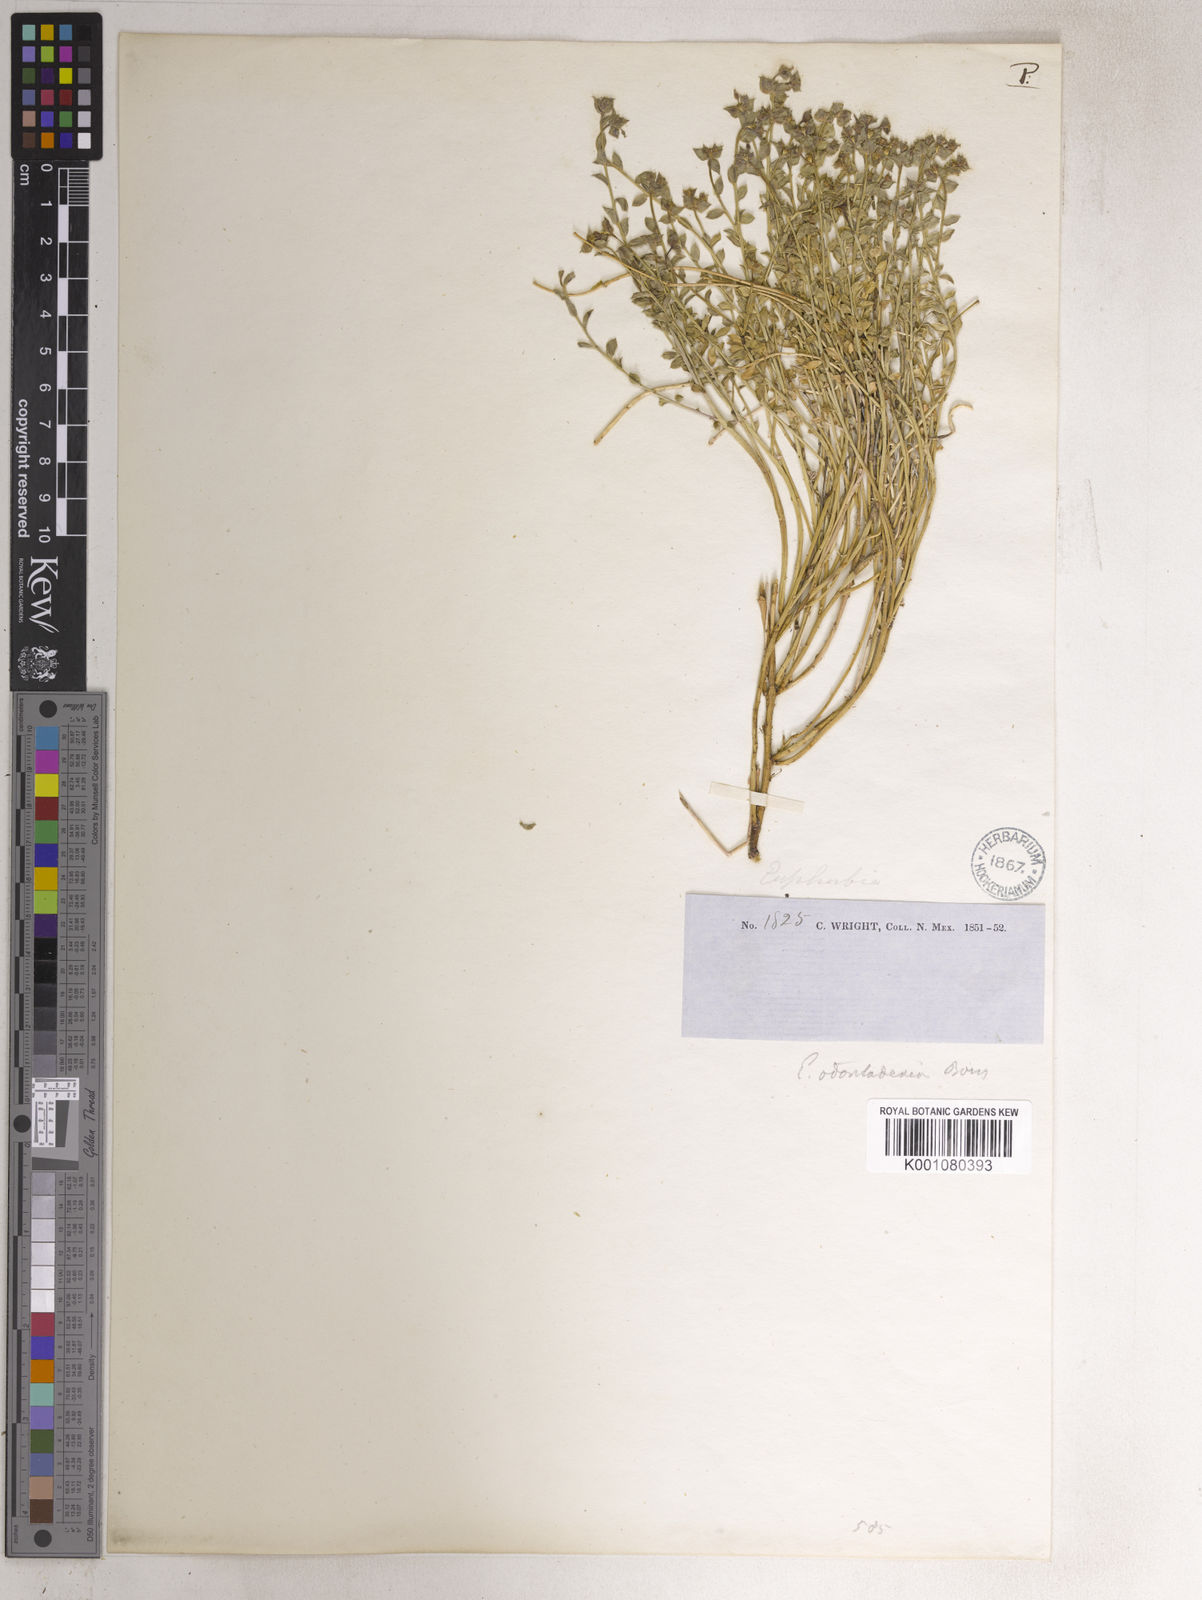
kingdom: Plantae
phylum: Tracheophyta
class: Magnoliopsida
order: Malpighiales
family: Euphorbiaceae
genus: Euphorbia
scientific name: Euphorbia brachycera
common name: Shorthorn spurge
